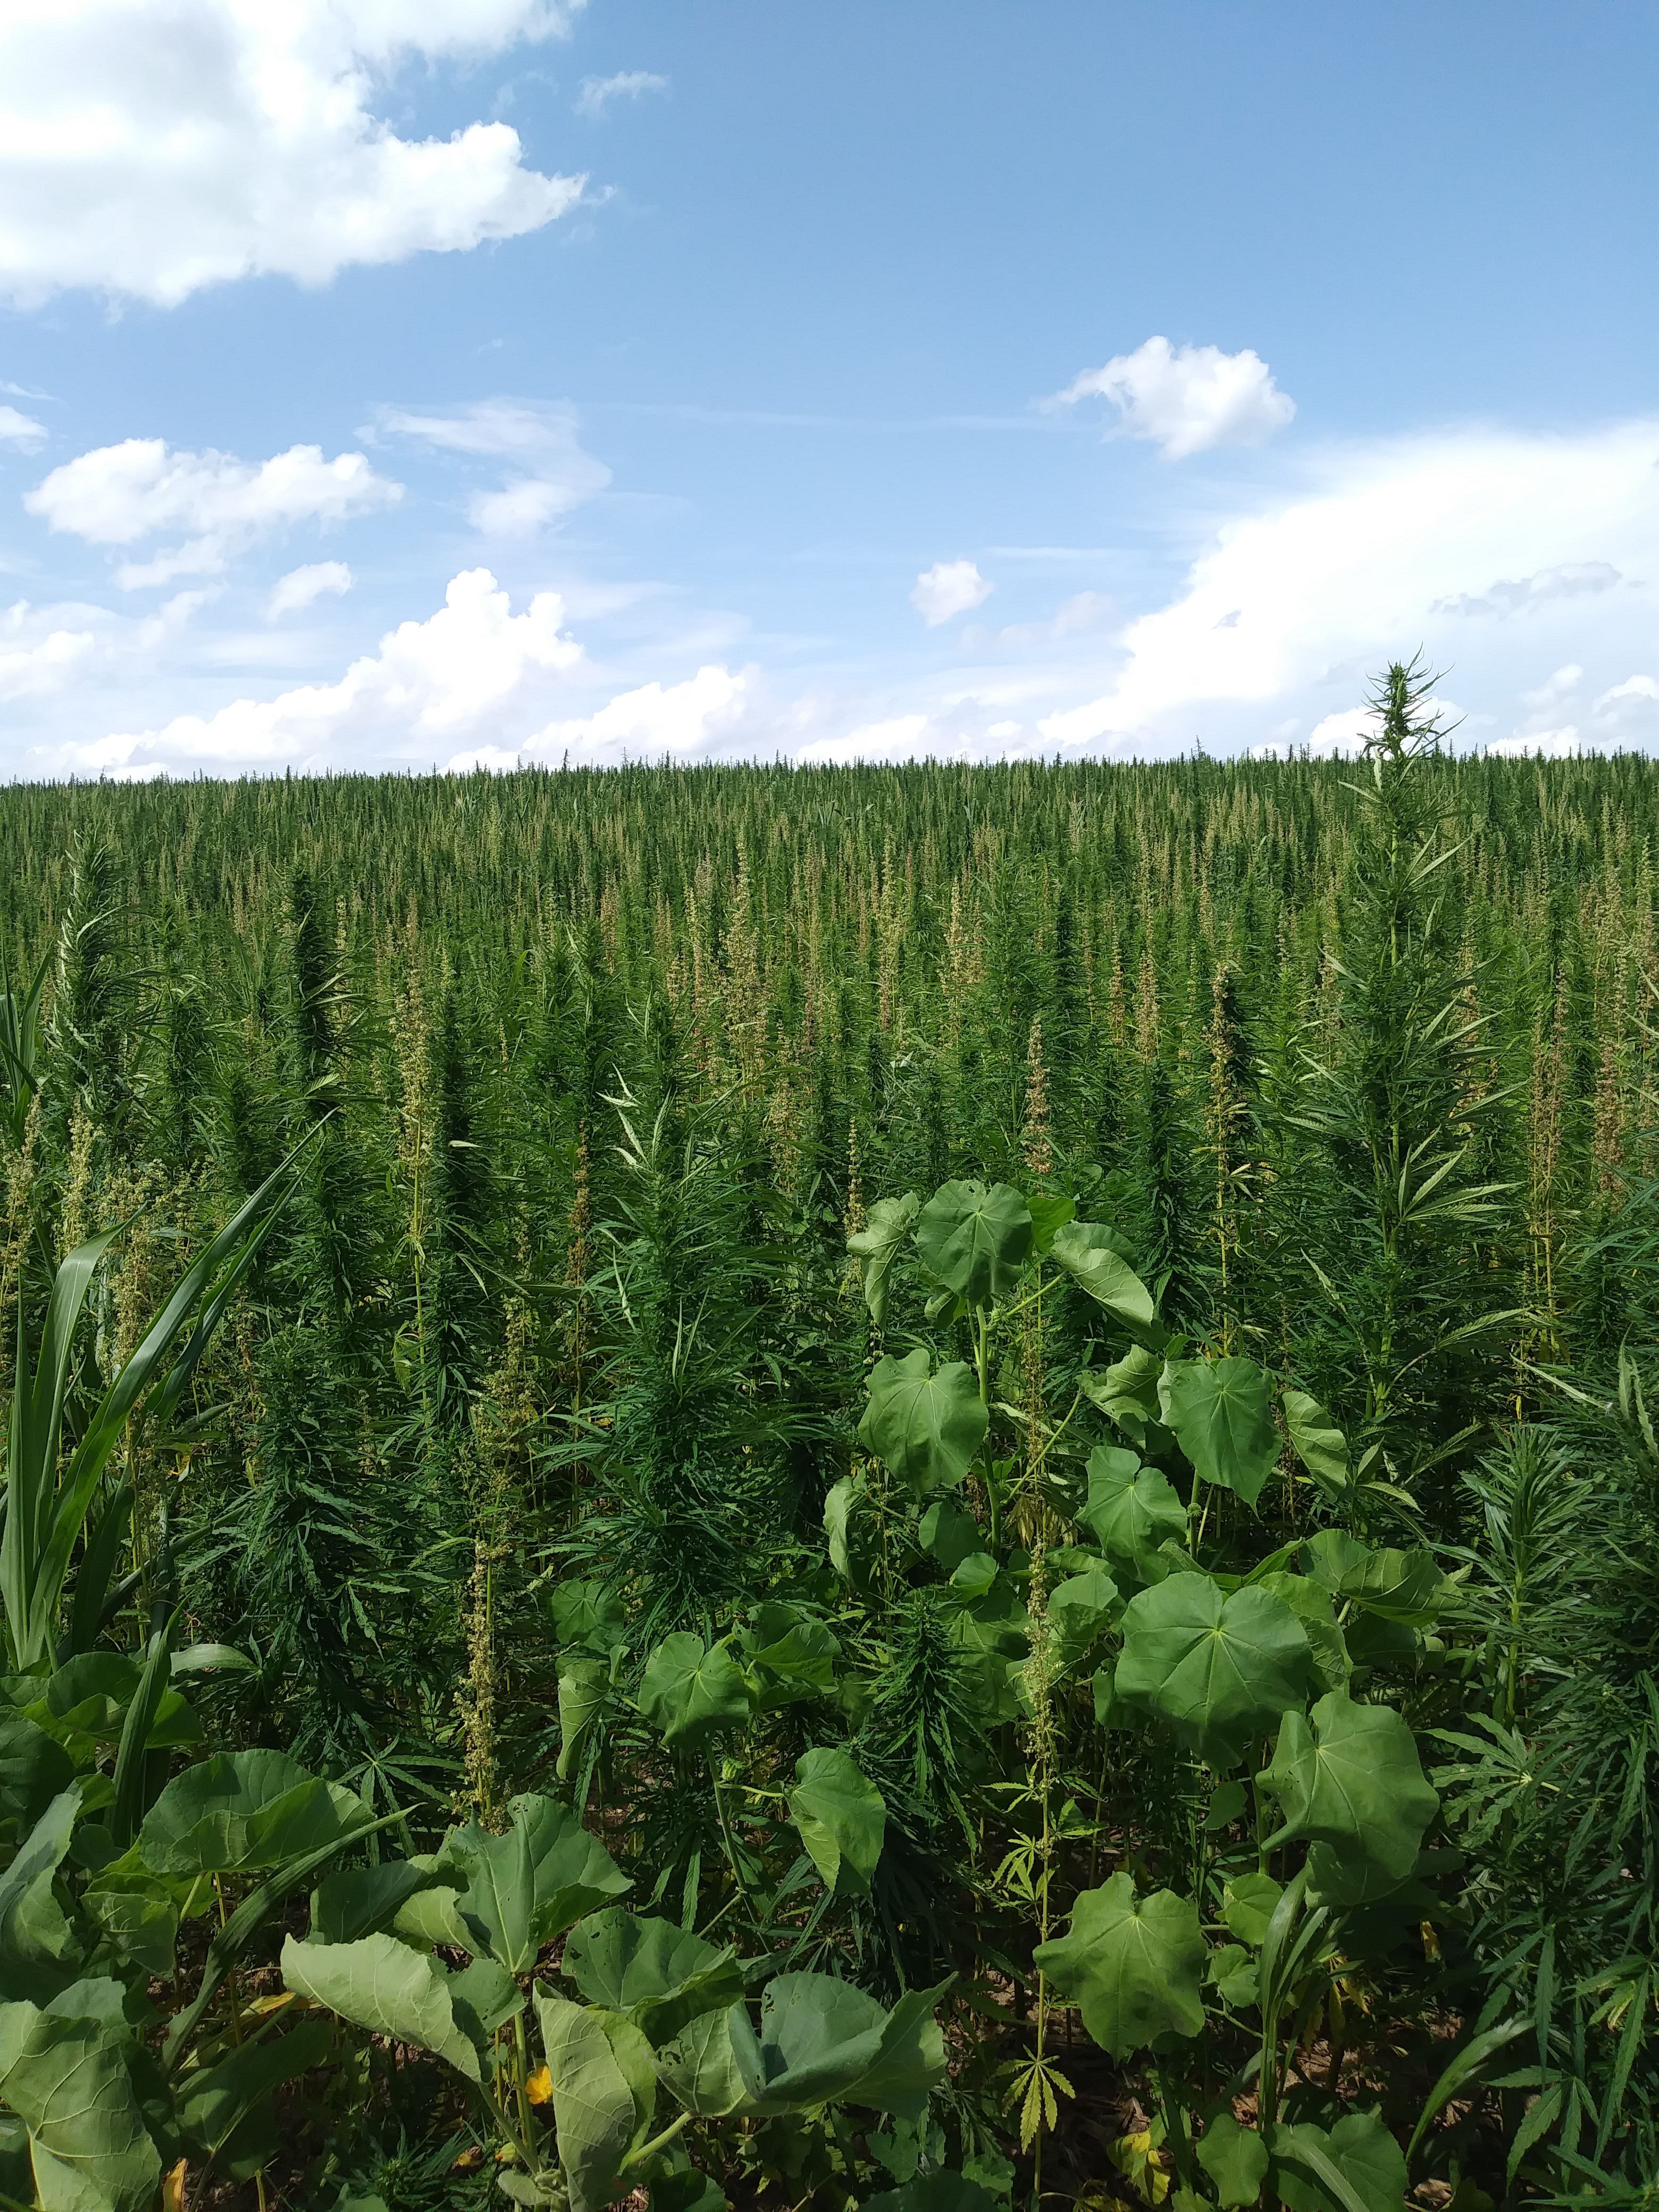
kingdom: Plantae
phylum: Tracheophyta
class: Magnoliopsida
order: Rosales
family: Cannabaceae
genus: Cannabis
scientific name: Cannabis sativa
